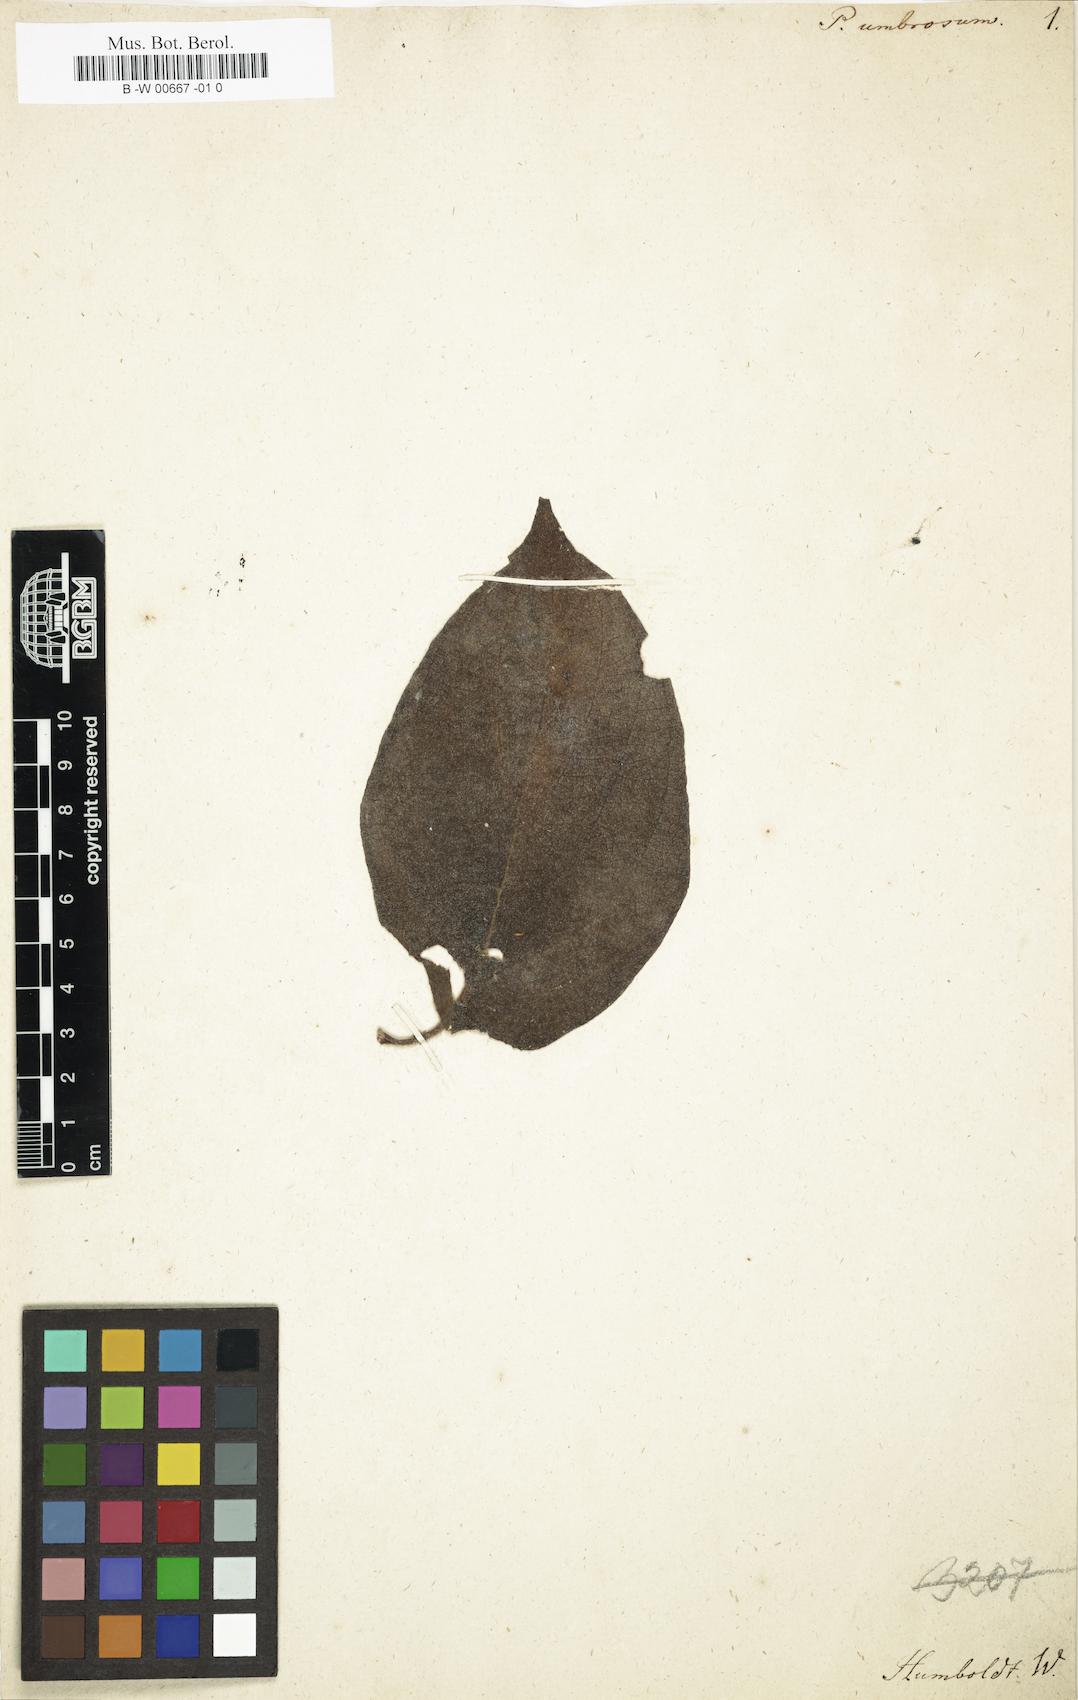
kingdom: Plantae
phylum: Tracheophyta
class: Magnoliopsida
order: Piperales
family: Piperaceae
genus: Piper
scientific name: Piper umbrosum
